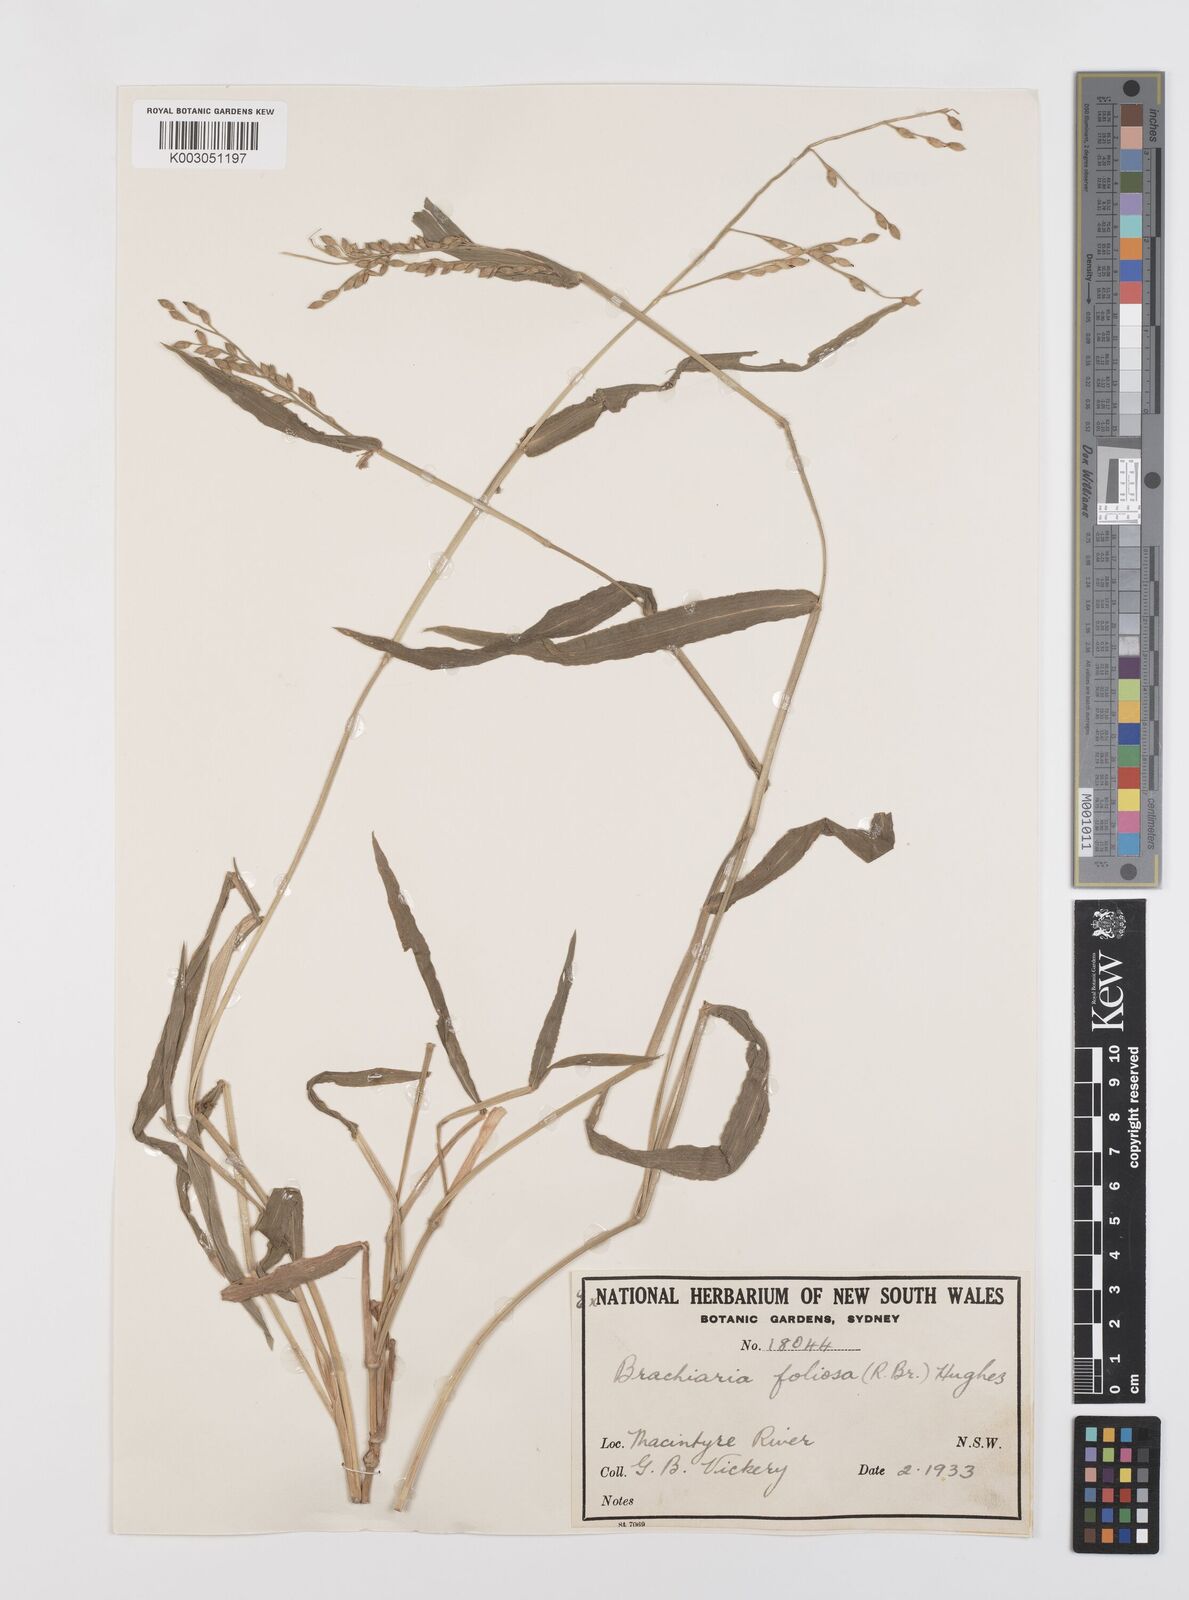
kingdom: Plantae
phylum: Tracheophyta
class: Liliopsida
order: Poales
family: Poaceae
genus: Urochloa
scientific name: Urochloa foliosa
